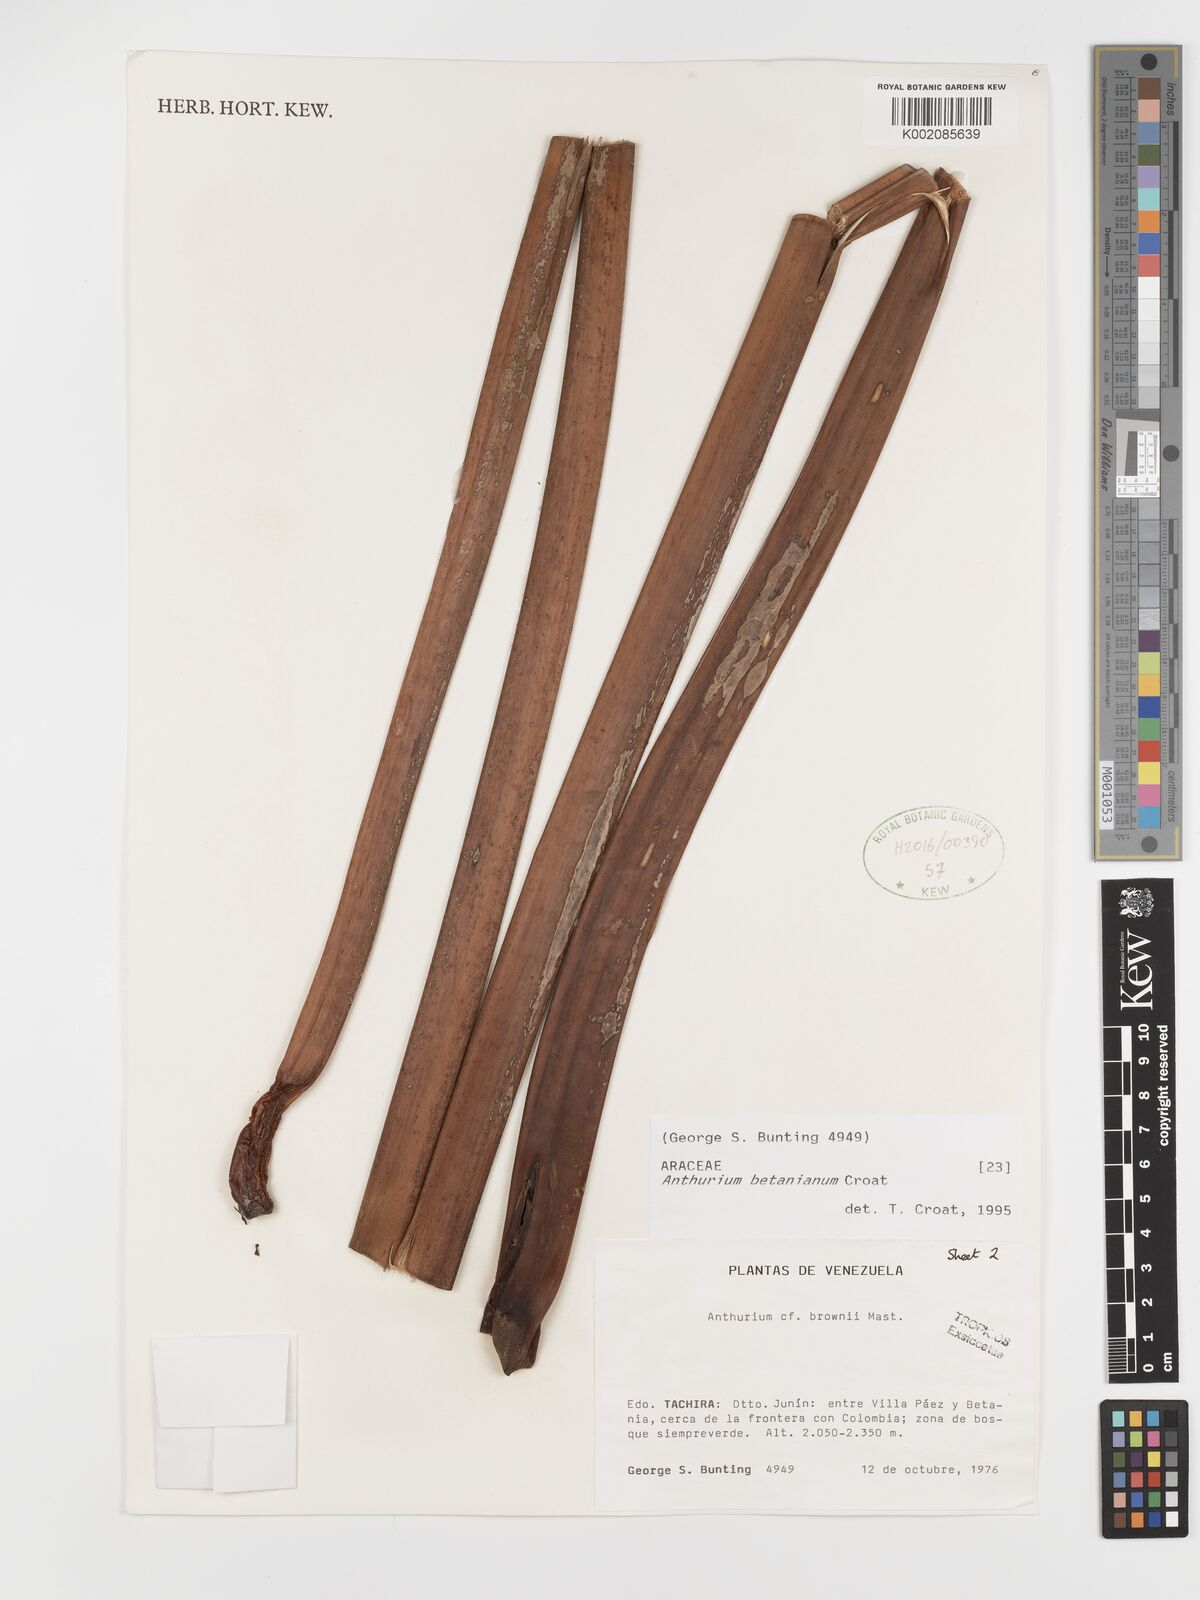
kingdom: Plantae
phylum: Tracheophyta
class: Liliopsida
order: Alismatales
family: Araceae
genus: Anthurium
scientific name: Anthurium betanianum
